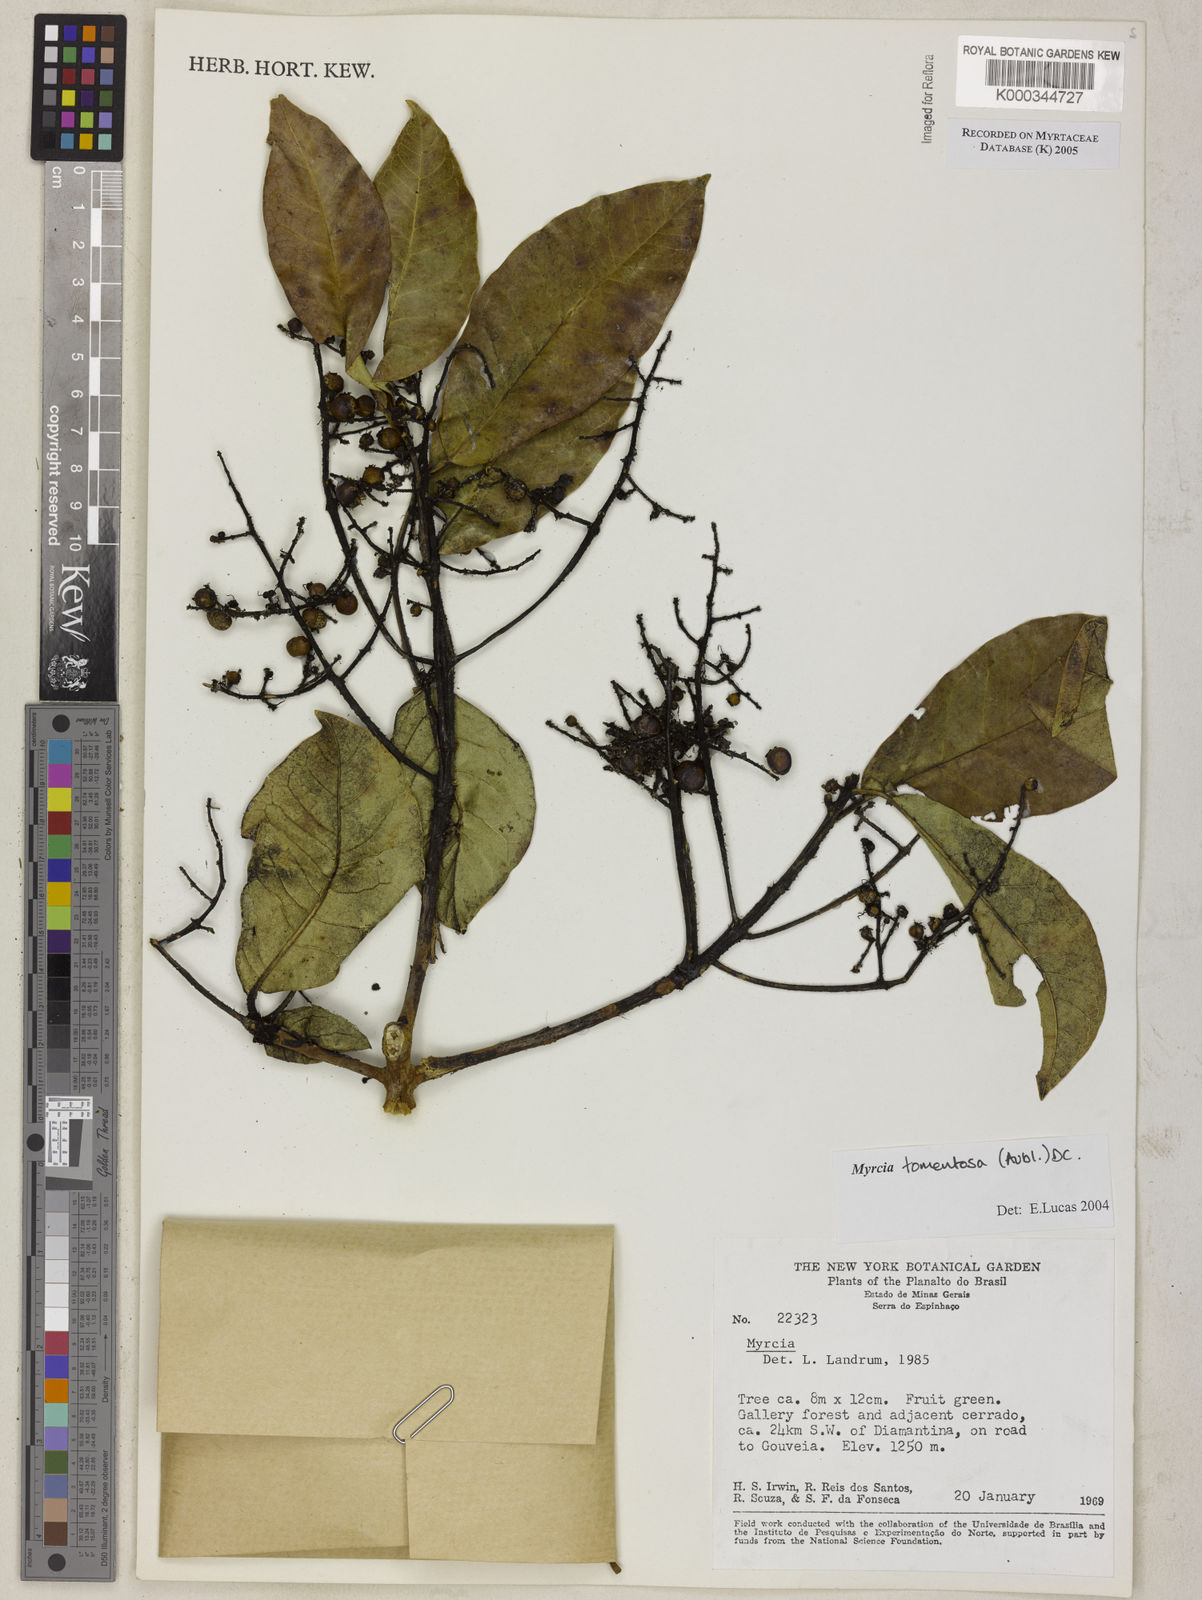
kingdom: Plantae
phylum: Tracheophyta
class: Magnoliopsida
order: Myrtales
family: Myrtaceae
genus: Myrcia
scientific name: Myrcia tomentosa
